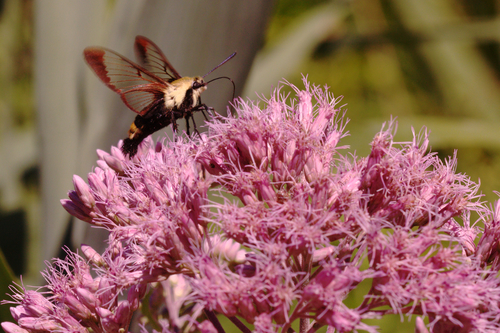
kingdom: Animalia
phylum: Arthropoda
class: Insecta
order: Lepidoptera
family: Sphingidae
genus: Hemaris
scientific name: Hemaris diffinis
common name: Bumblebee moth
